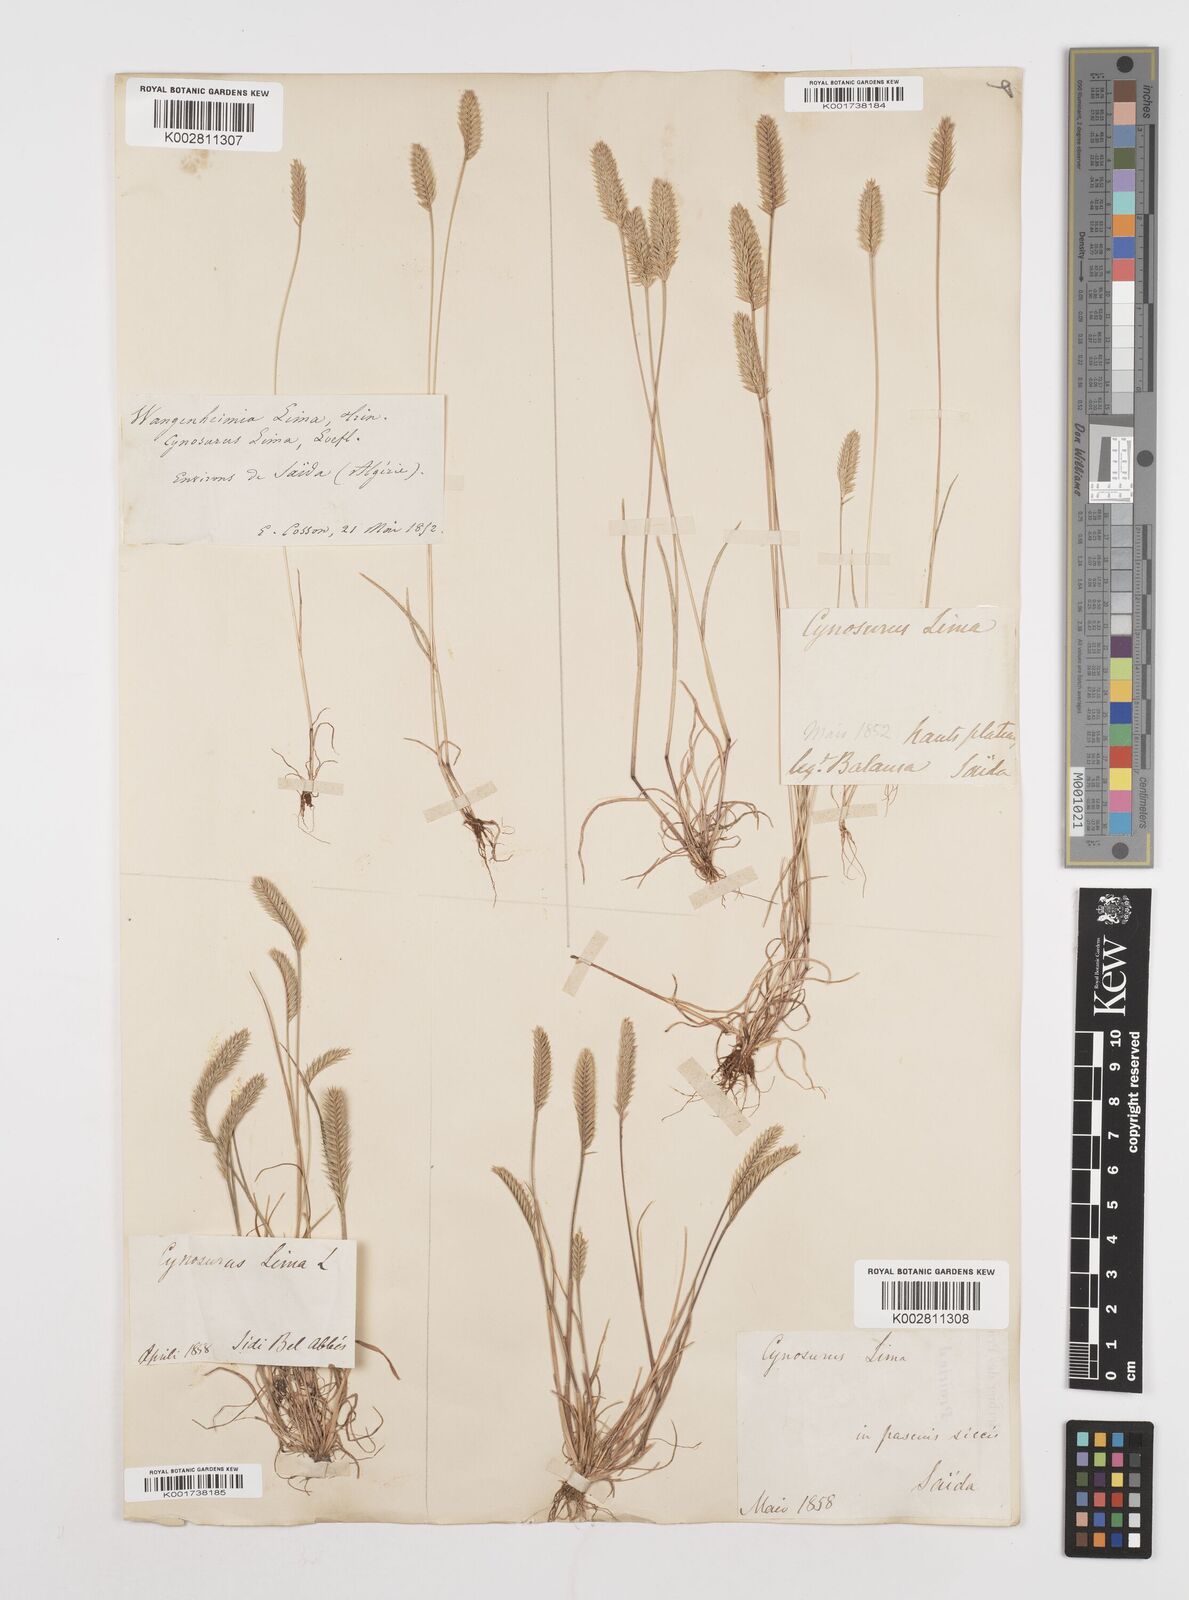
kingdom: Plantae
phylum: Tracheophyta
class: Liliopsida
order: Poales
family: Poaceae
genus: Wangenheimia
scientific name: Wangenheimia lima
